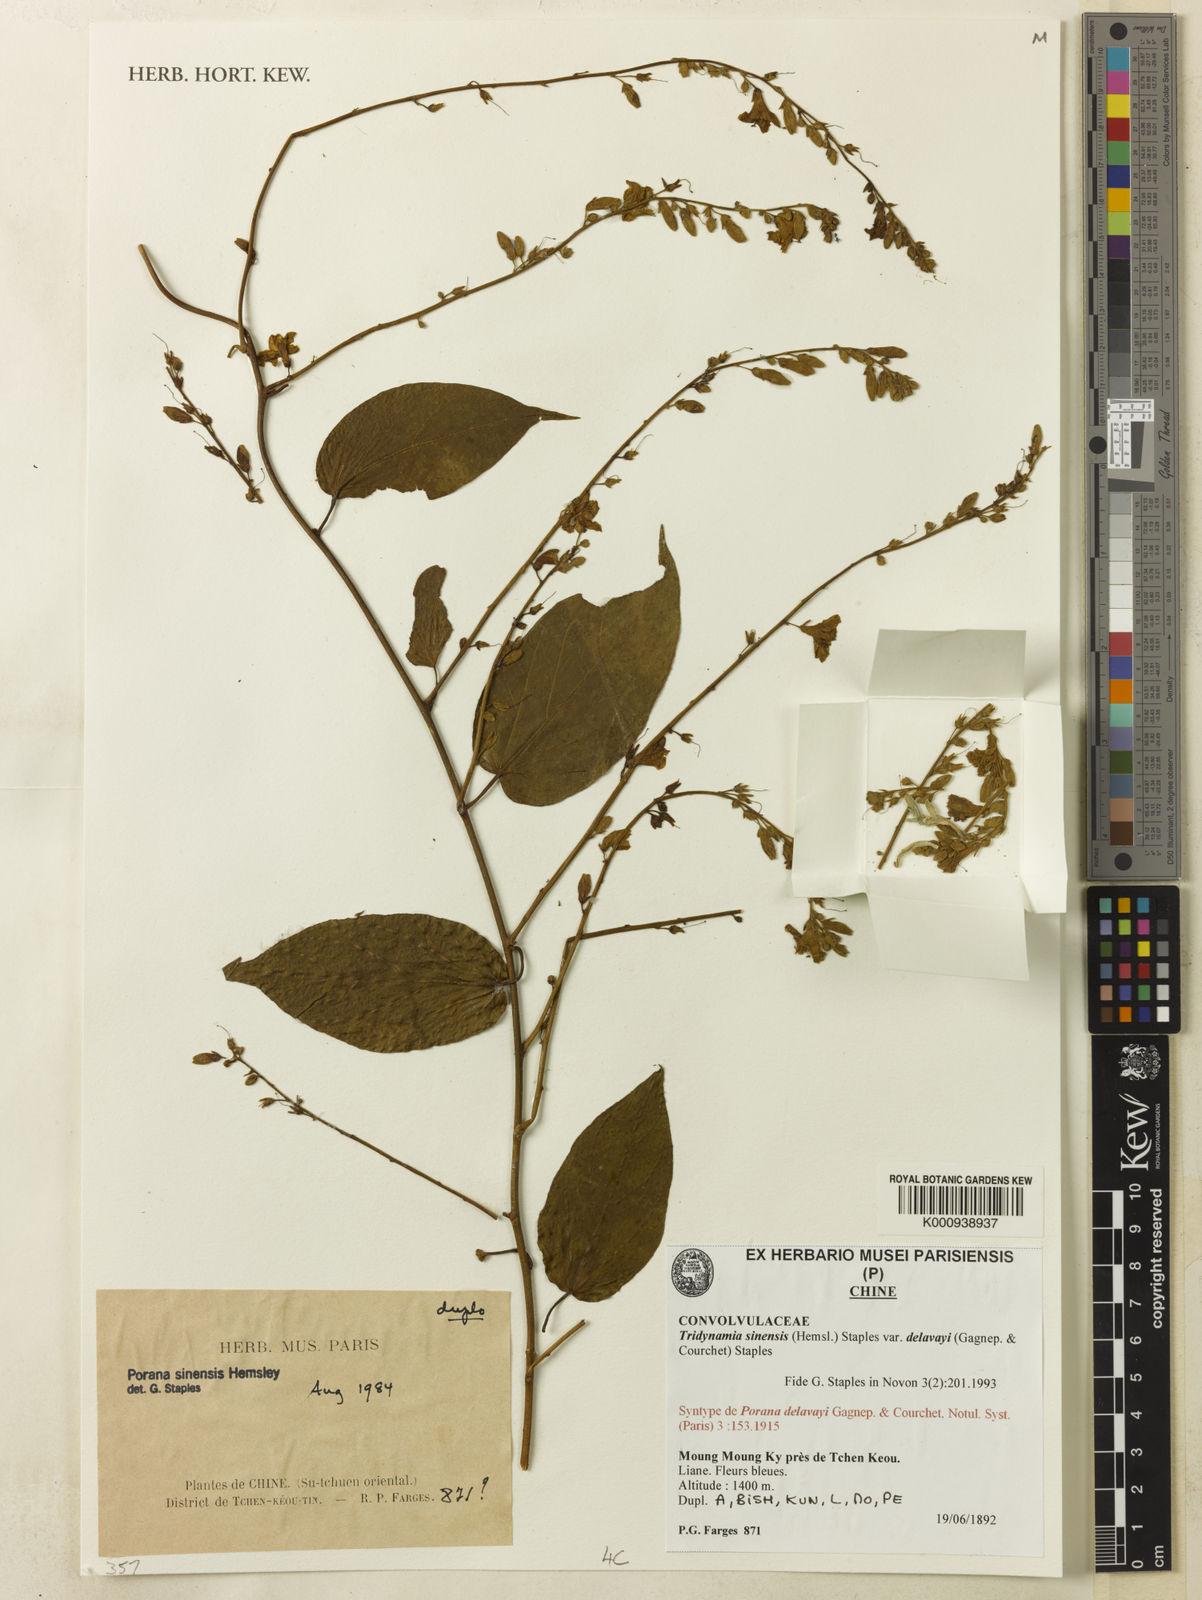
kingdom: Plantae
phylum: Tracheophyta
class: Magnoliopsida
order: Solanales
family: Convolvulaceae
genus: Tridynamia
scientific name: Tridynamia sinensis
